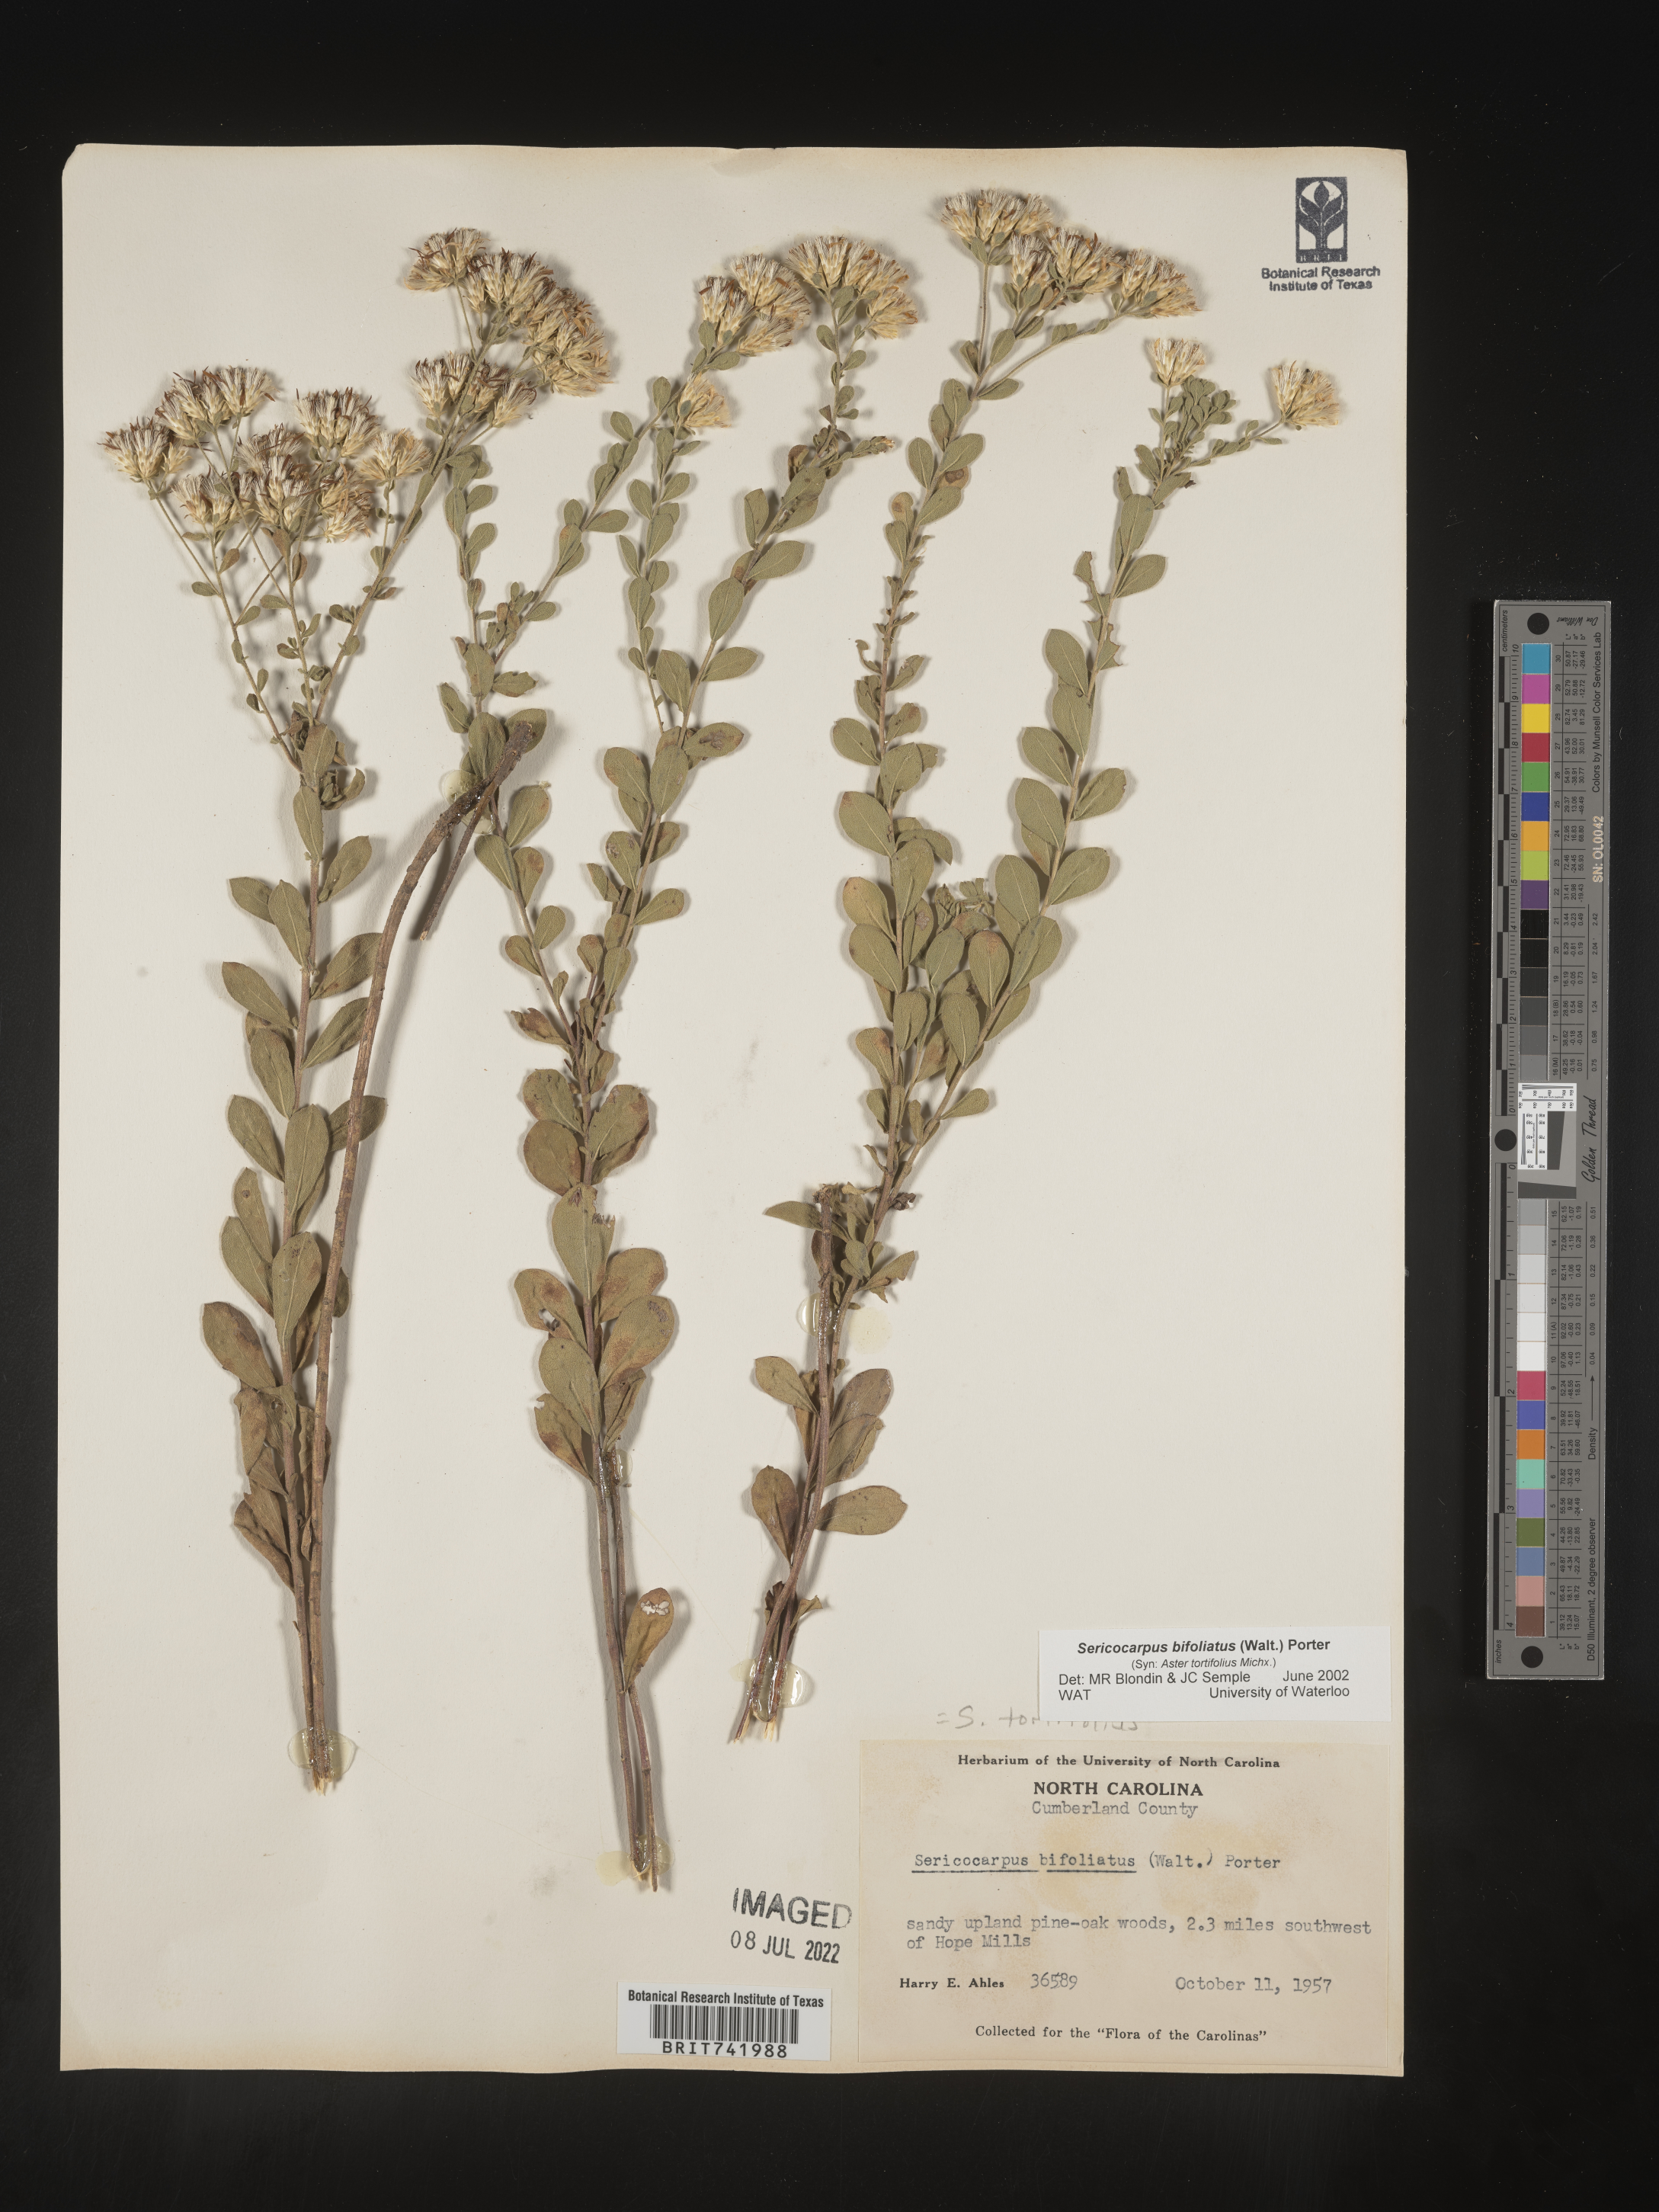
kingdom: Plantae
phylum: Tracheophyta
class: Magnoliopsida
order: Asterales
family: Asteraceae
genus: Sericocarpus
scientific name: Sericocarpus tortifolius
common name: Dixie aster
